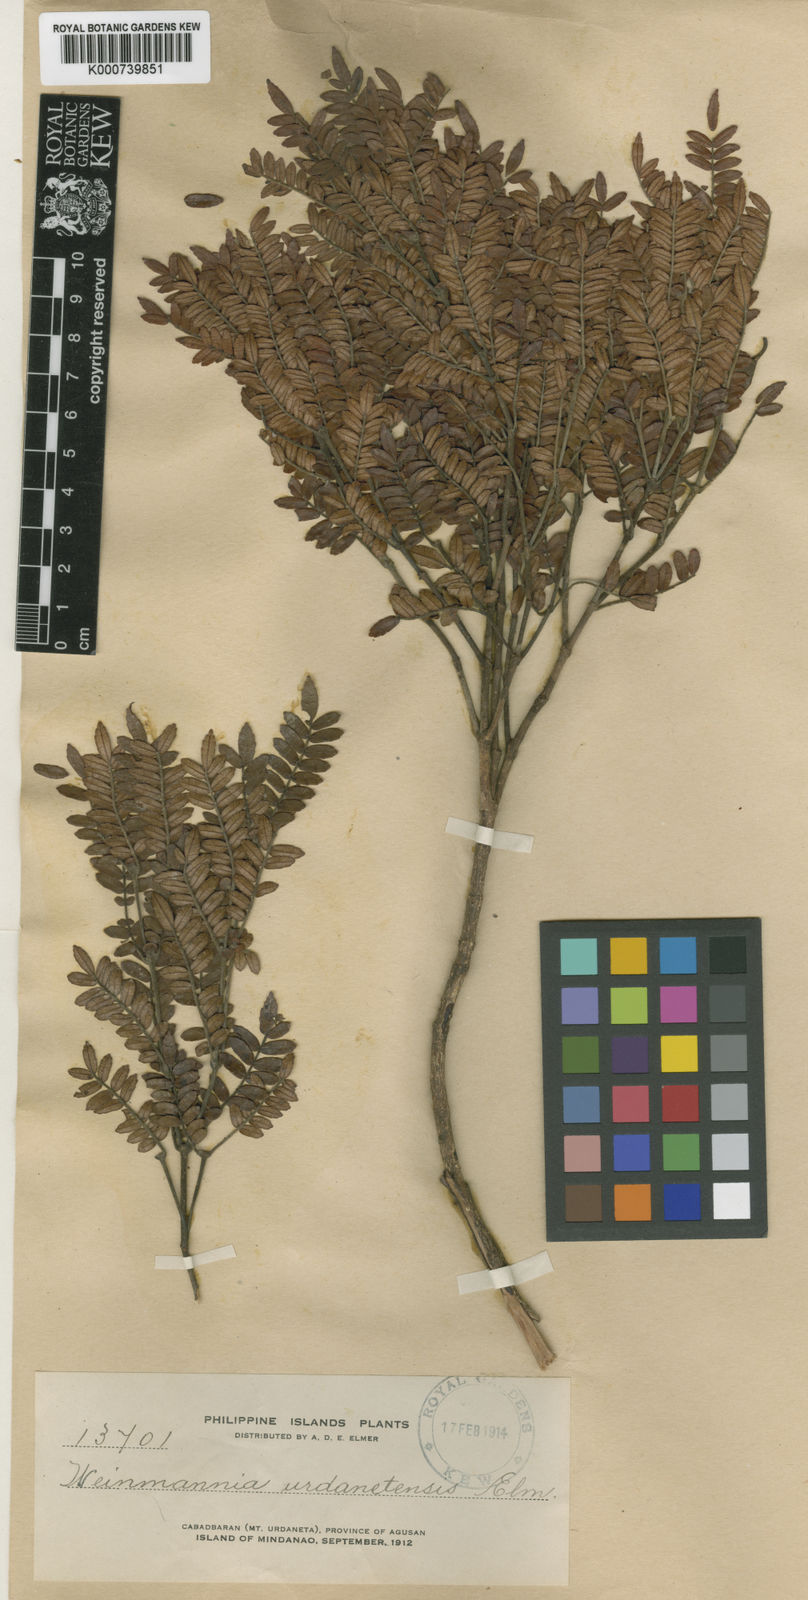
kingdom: Plantae
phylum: Tracheophyta
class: Magnoliopsida
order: Oxalidales
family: Cunoniaceae
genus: Pterophylla
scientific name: Pterophylla urdanetensis
